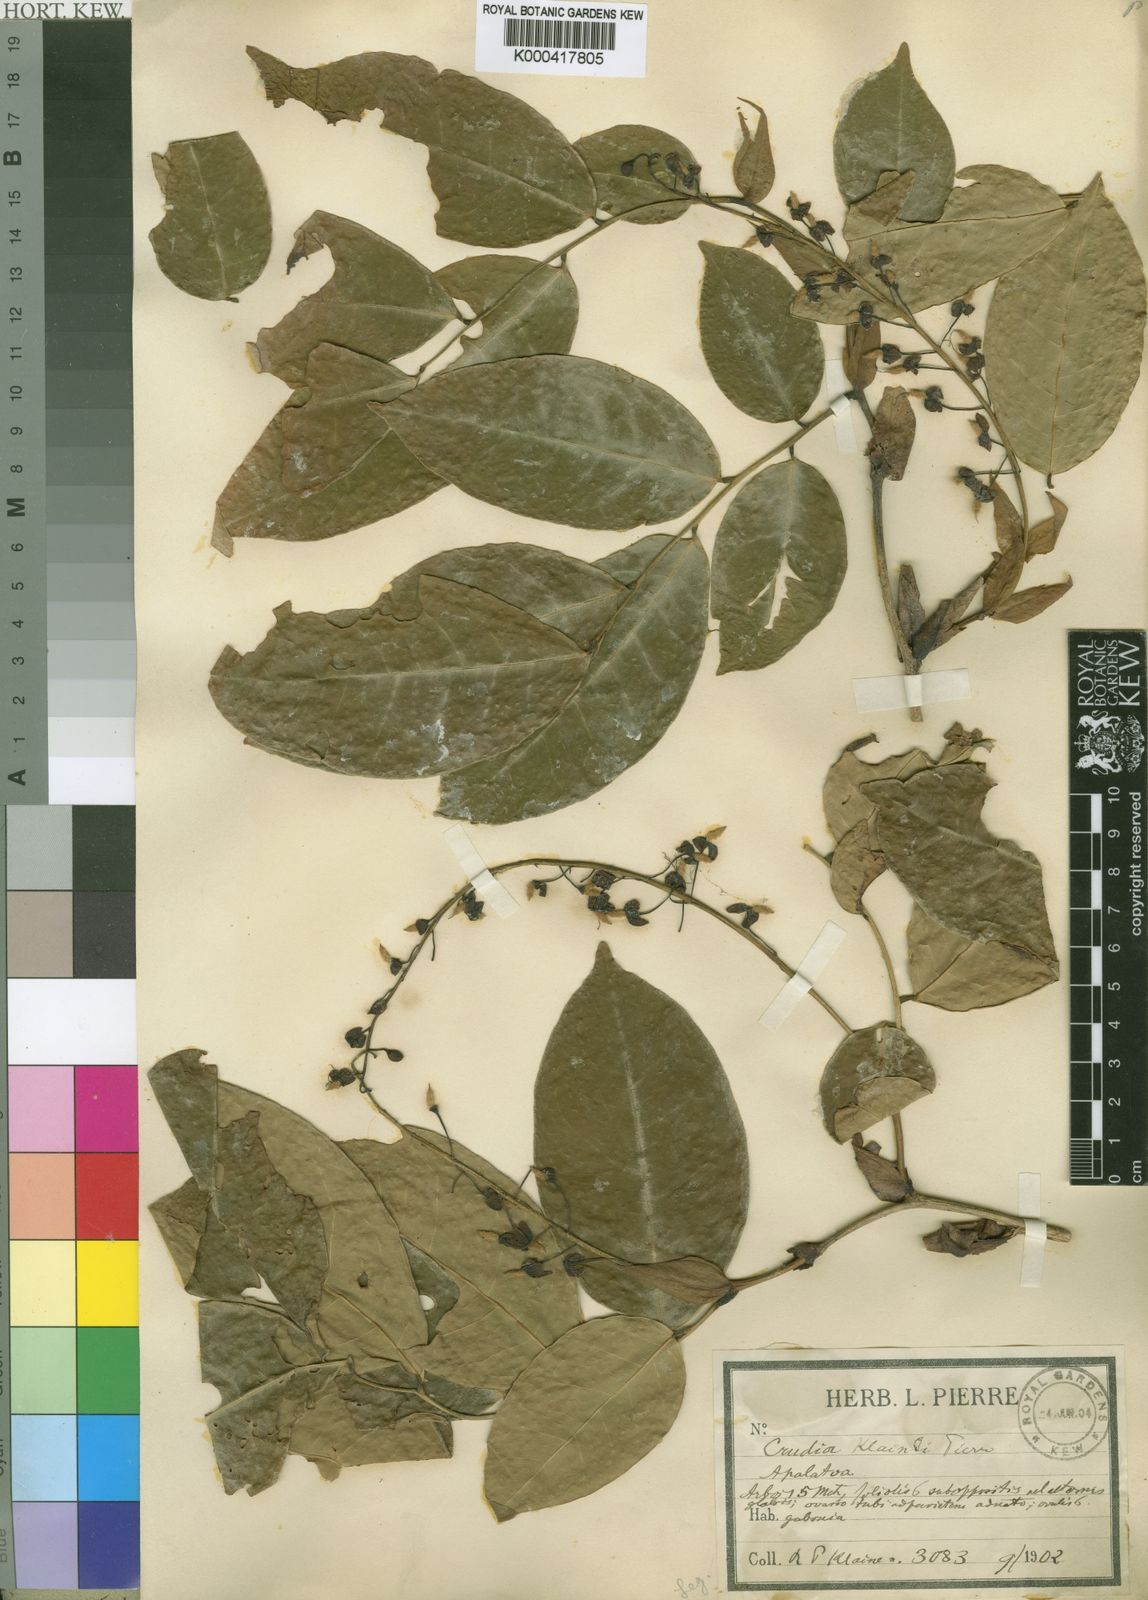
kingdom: Plantae
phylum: Tracheophyta
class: Magnoliopsida
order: Fabales
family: Fabaceae
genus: Crudia
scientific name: Crudia klainei
